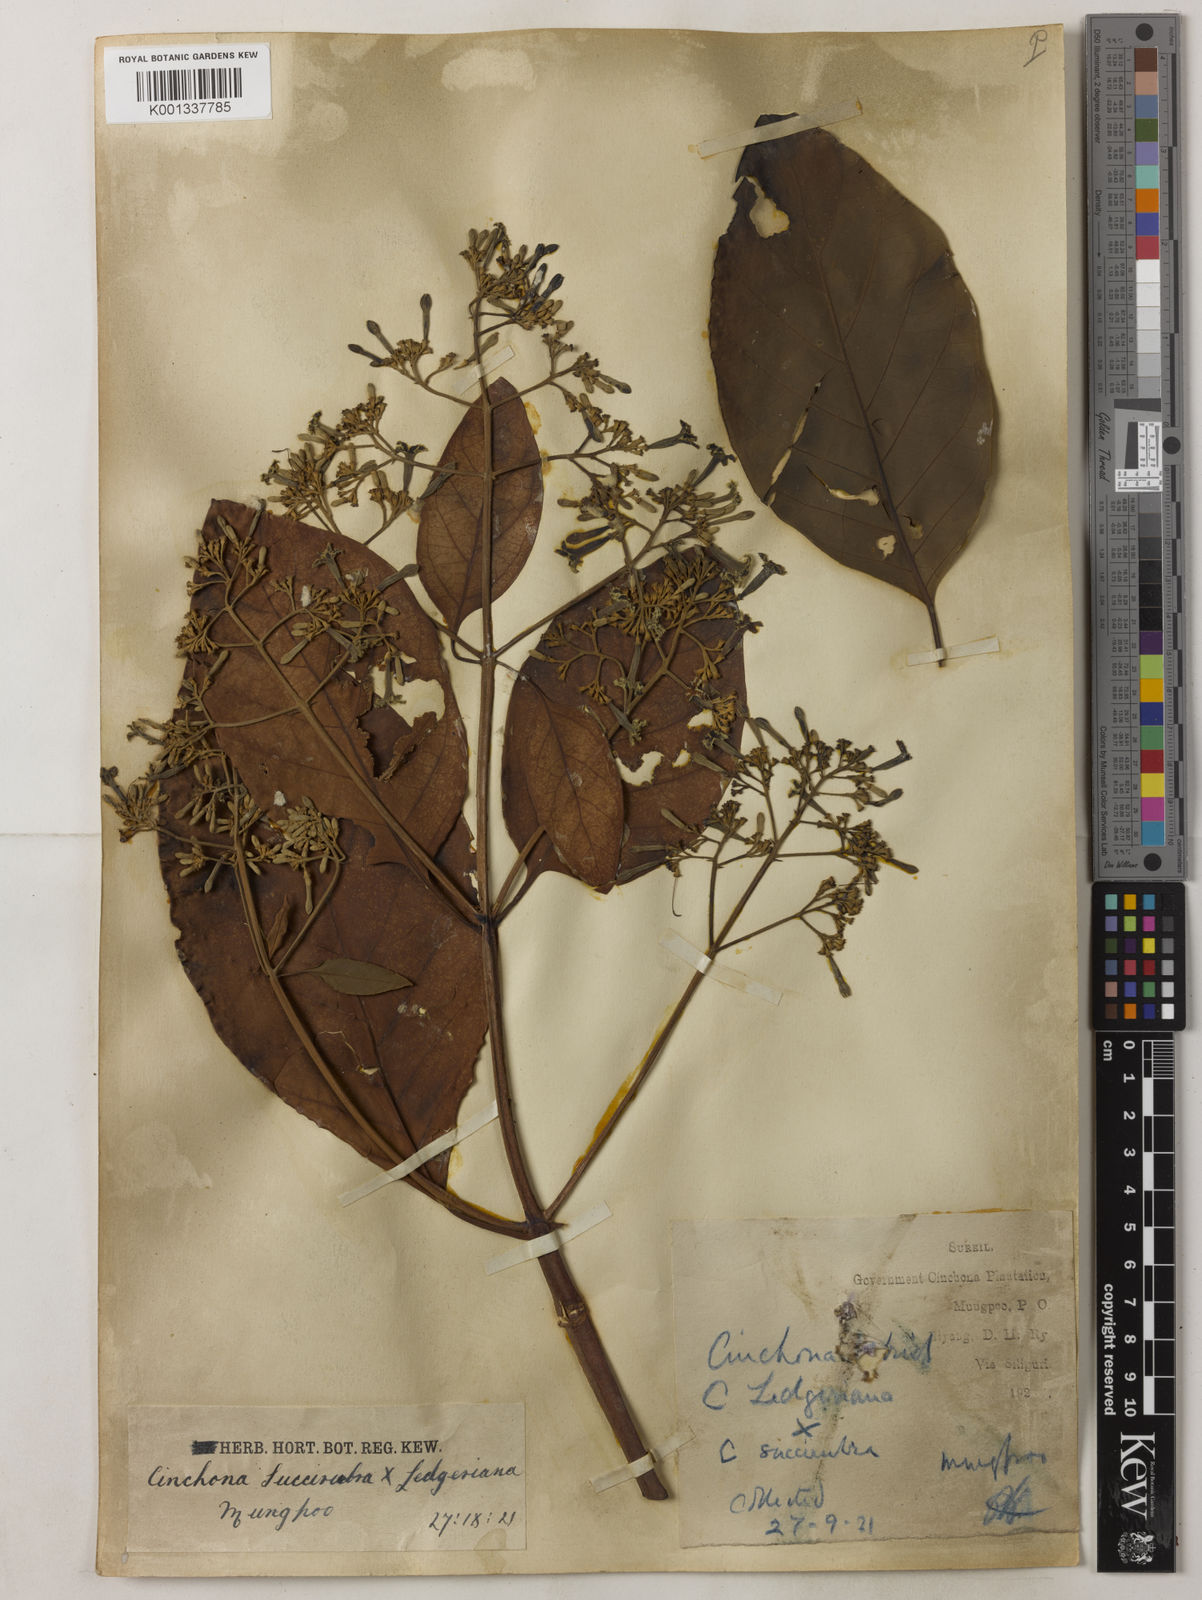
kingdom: Plantae
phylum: Tracheophyta
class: Magnoliopsida
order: Gentianales
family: Rubiaceae
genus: Cinchona
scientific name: Cinchona calisaya
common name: Ledgerbark
